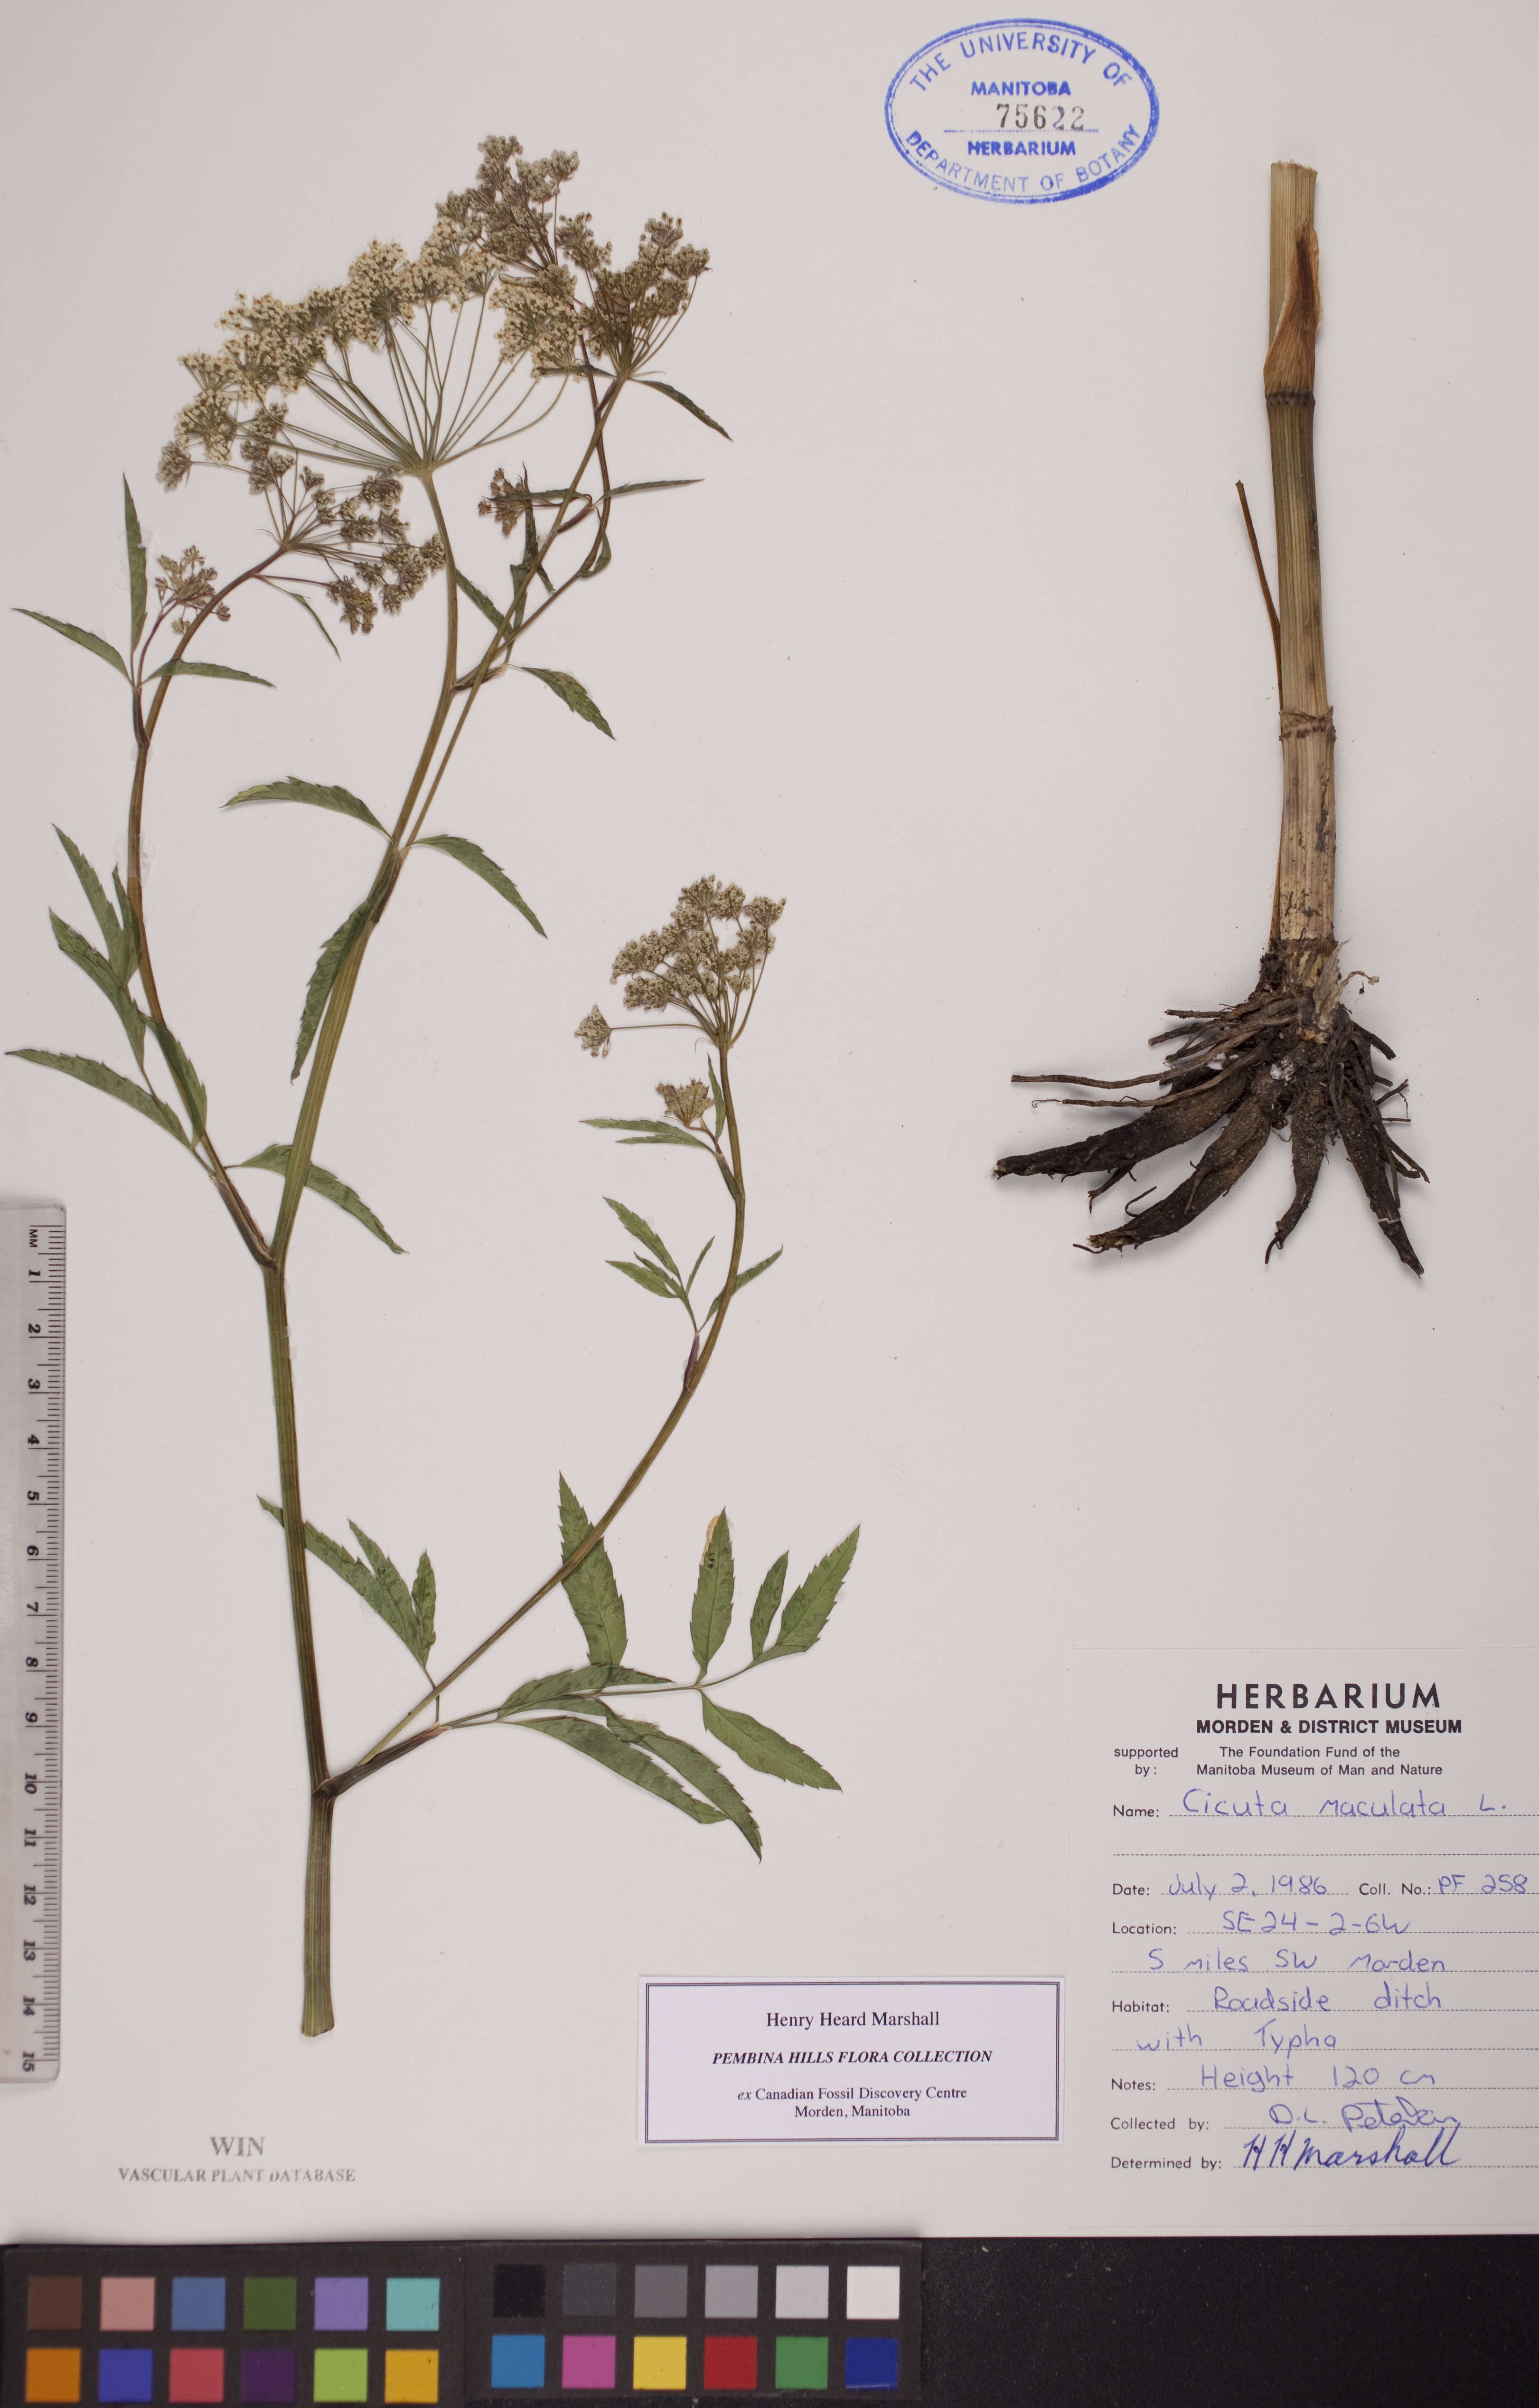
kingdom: Plantae
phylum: Tracheophyta
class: Magnoliopsida
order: Apiales
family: Apiaceae
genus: Cicuta
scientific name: Cicuta maculata
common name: Spotted cowbane
